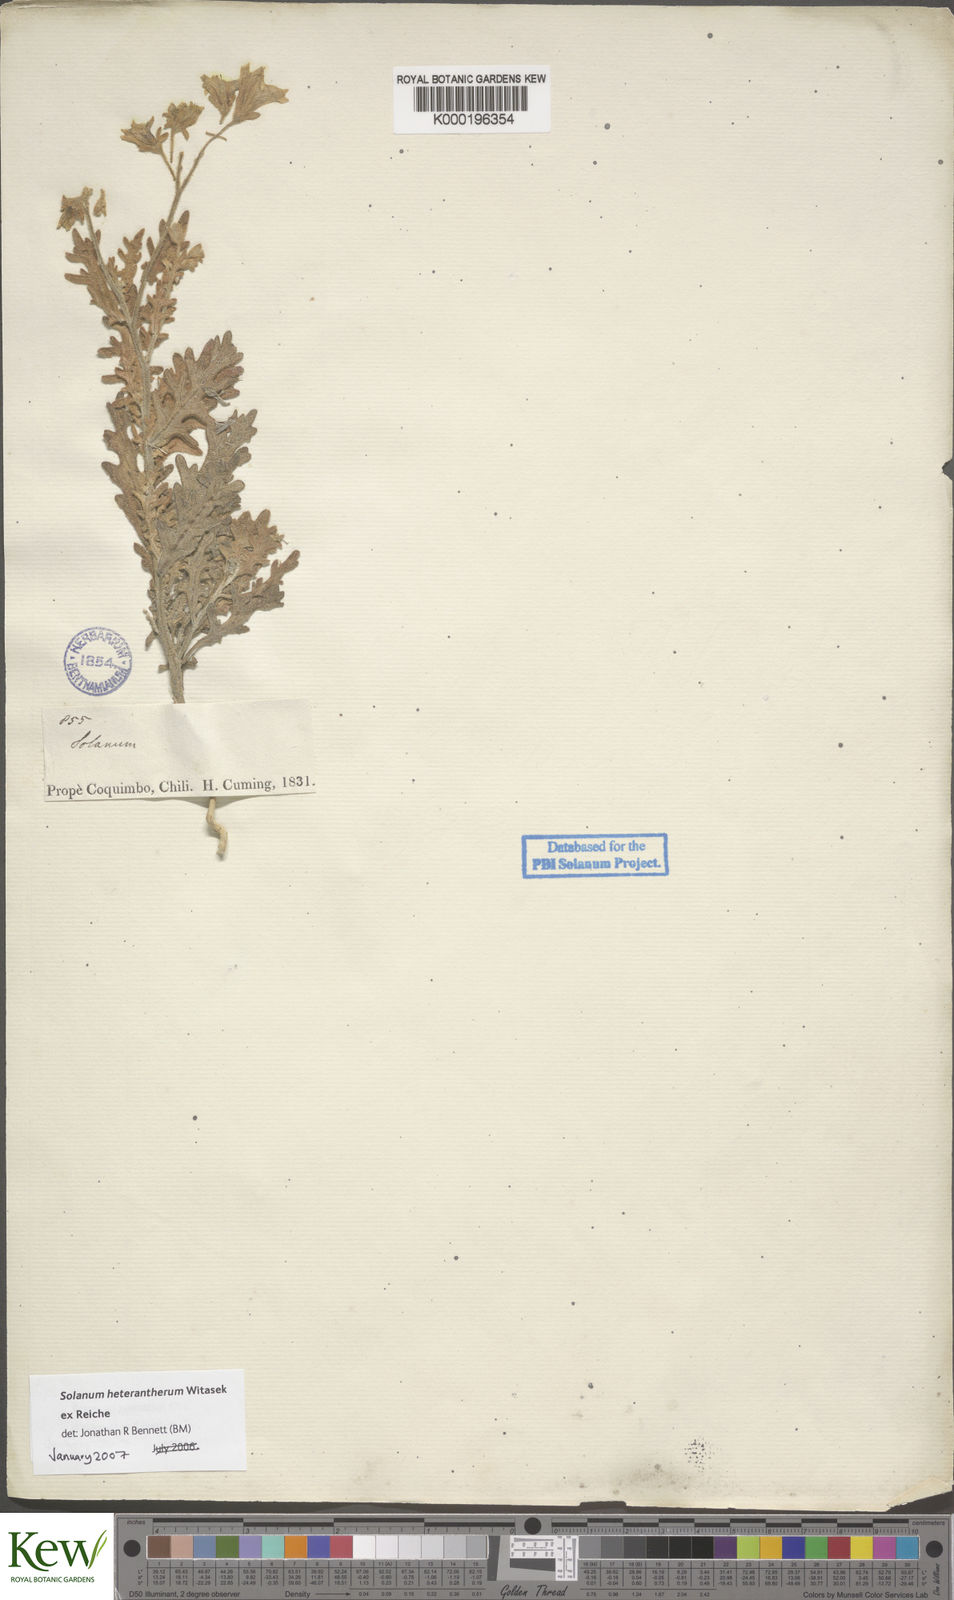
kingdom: Plantae
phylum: Tracheophyta
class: Magnoliopsida
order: Solanales
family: Solanaceae
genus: Solanum
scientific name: Solanum trinominum
